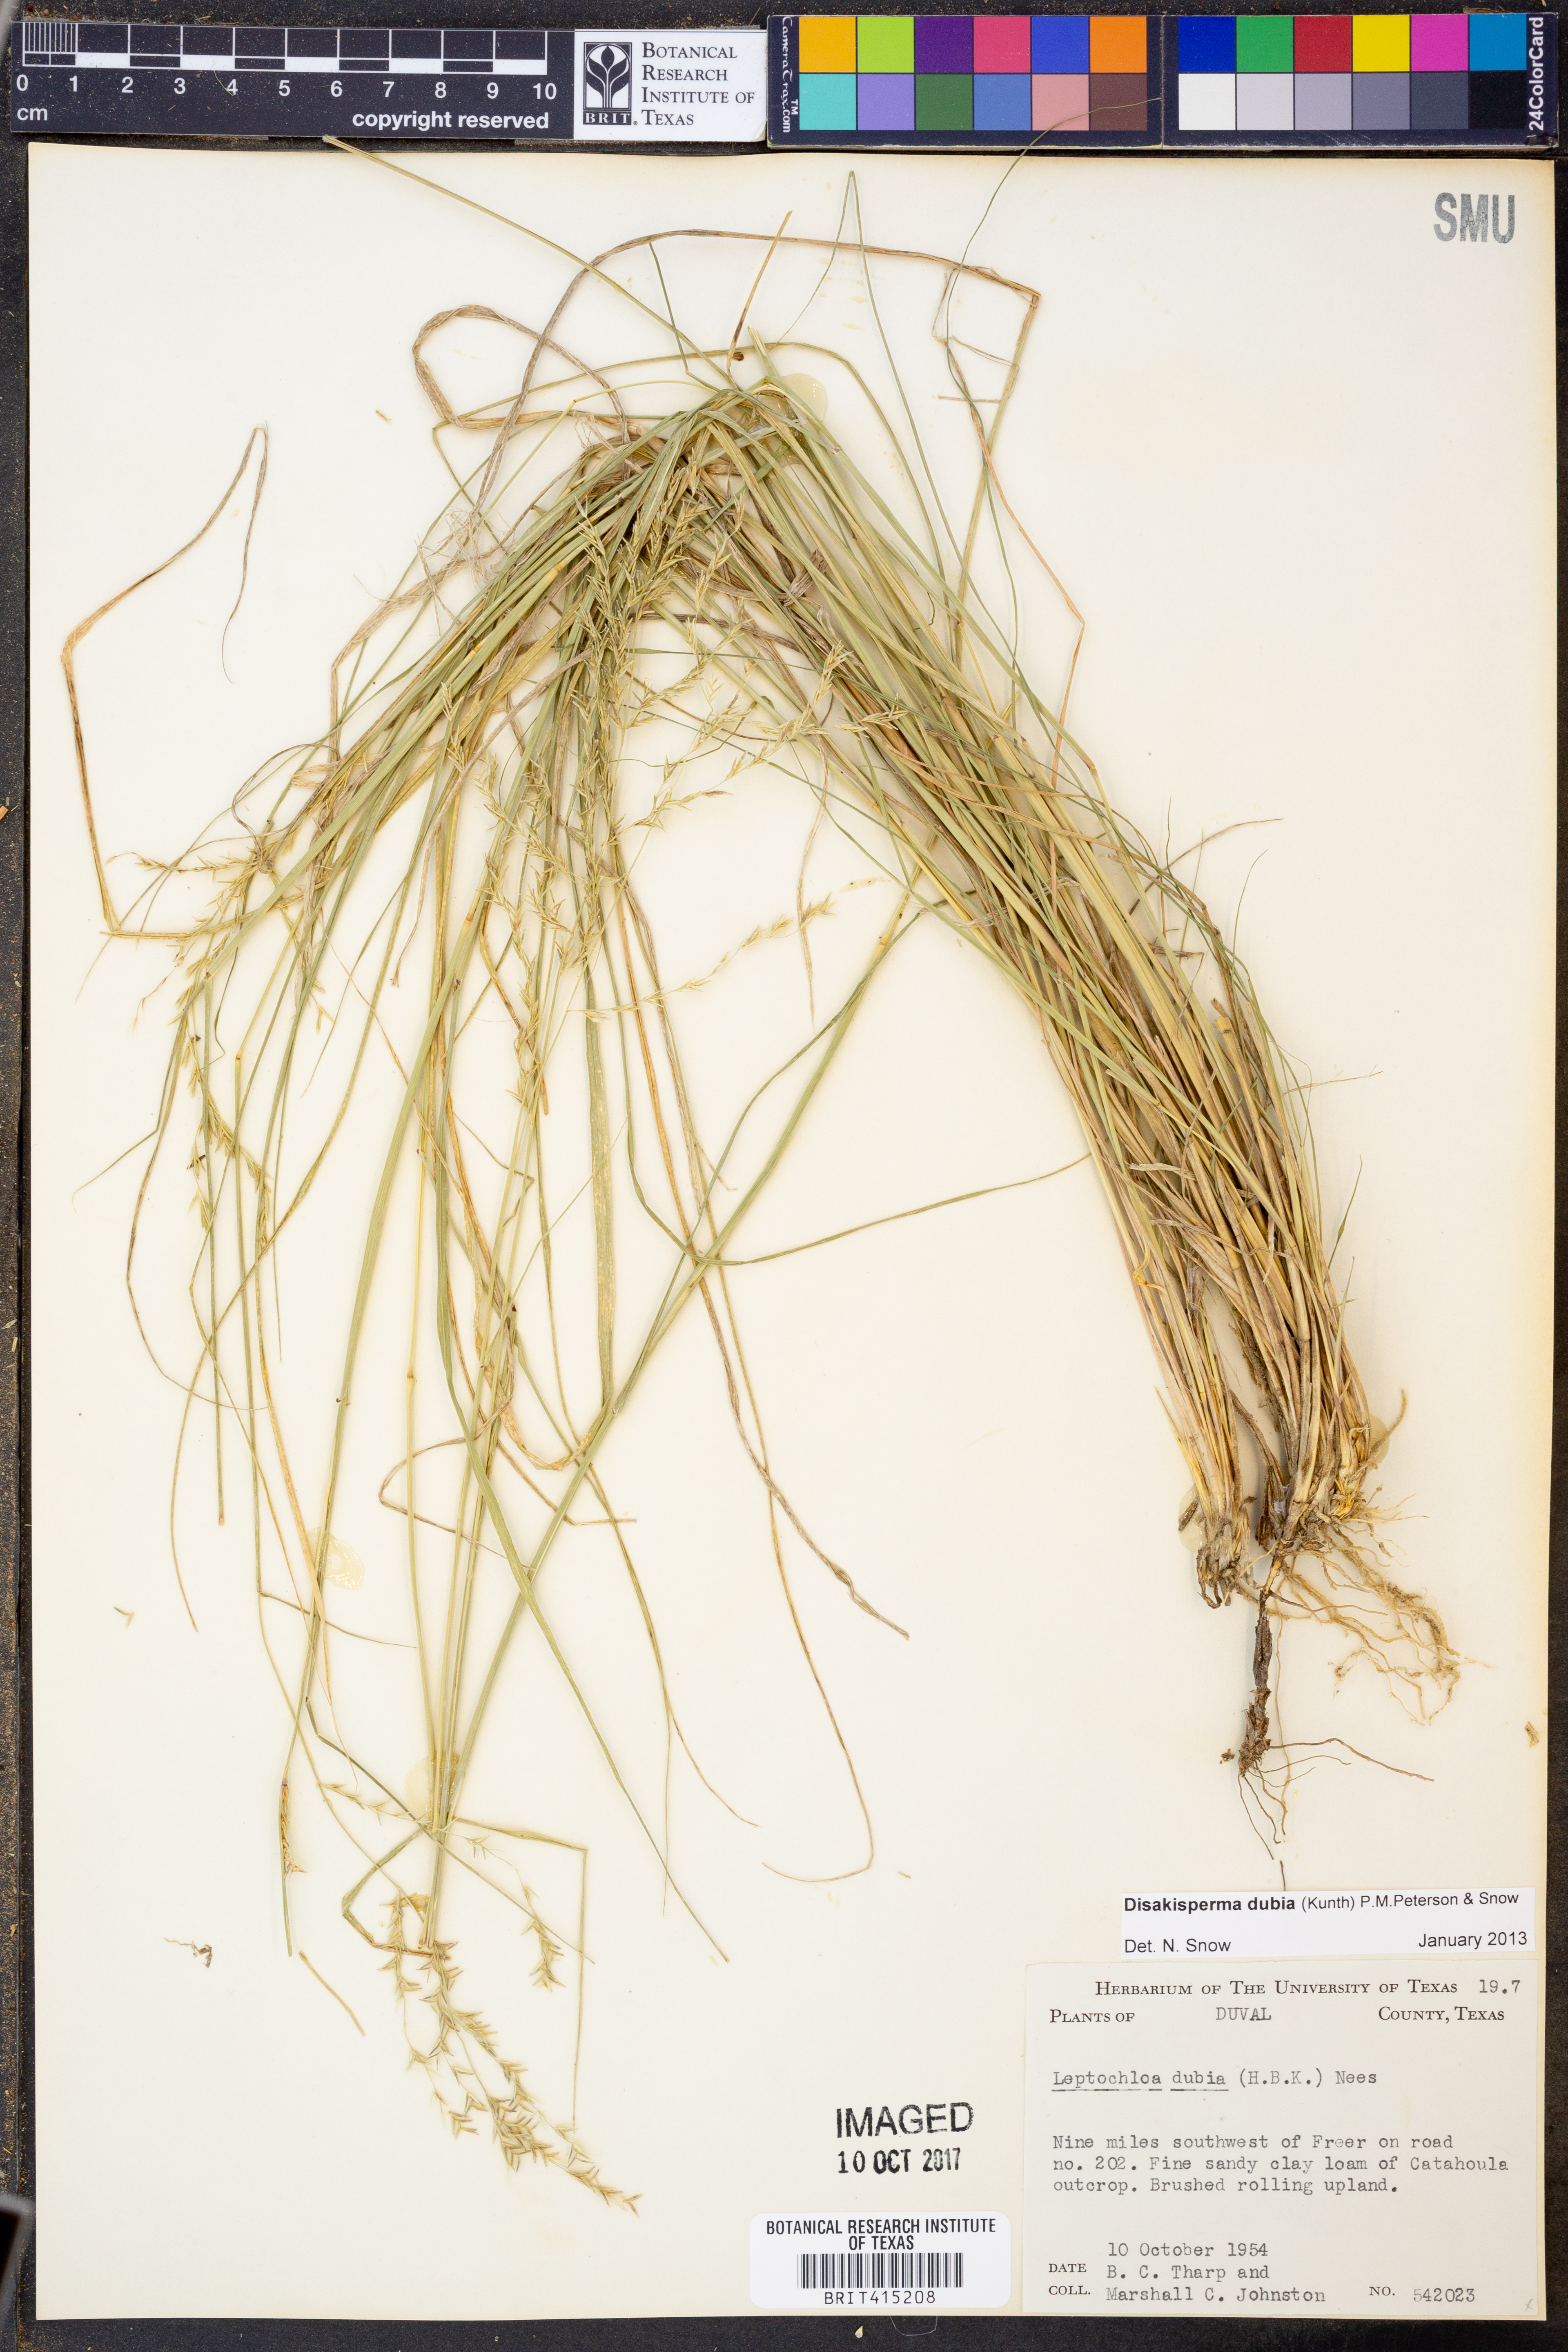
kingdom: Plantae
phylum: Tracheophyta
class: Liliopsida
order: Poales
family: Poaceae
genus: Disakisperma
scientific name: Disakisperma dubium
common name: Green sprangletop
